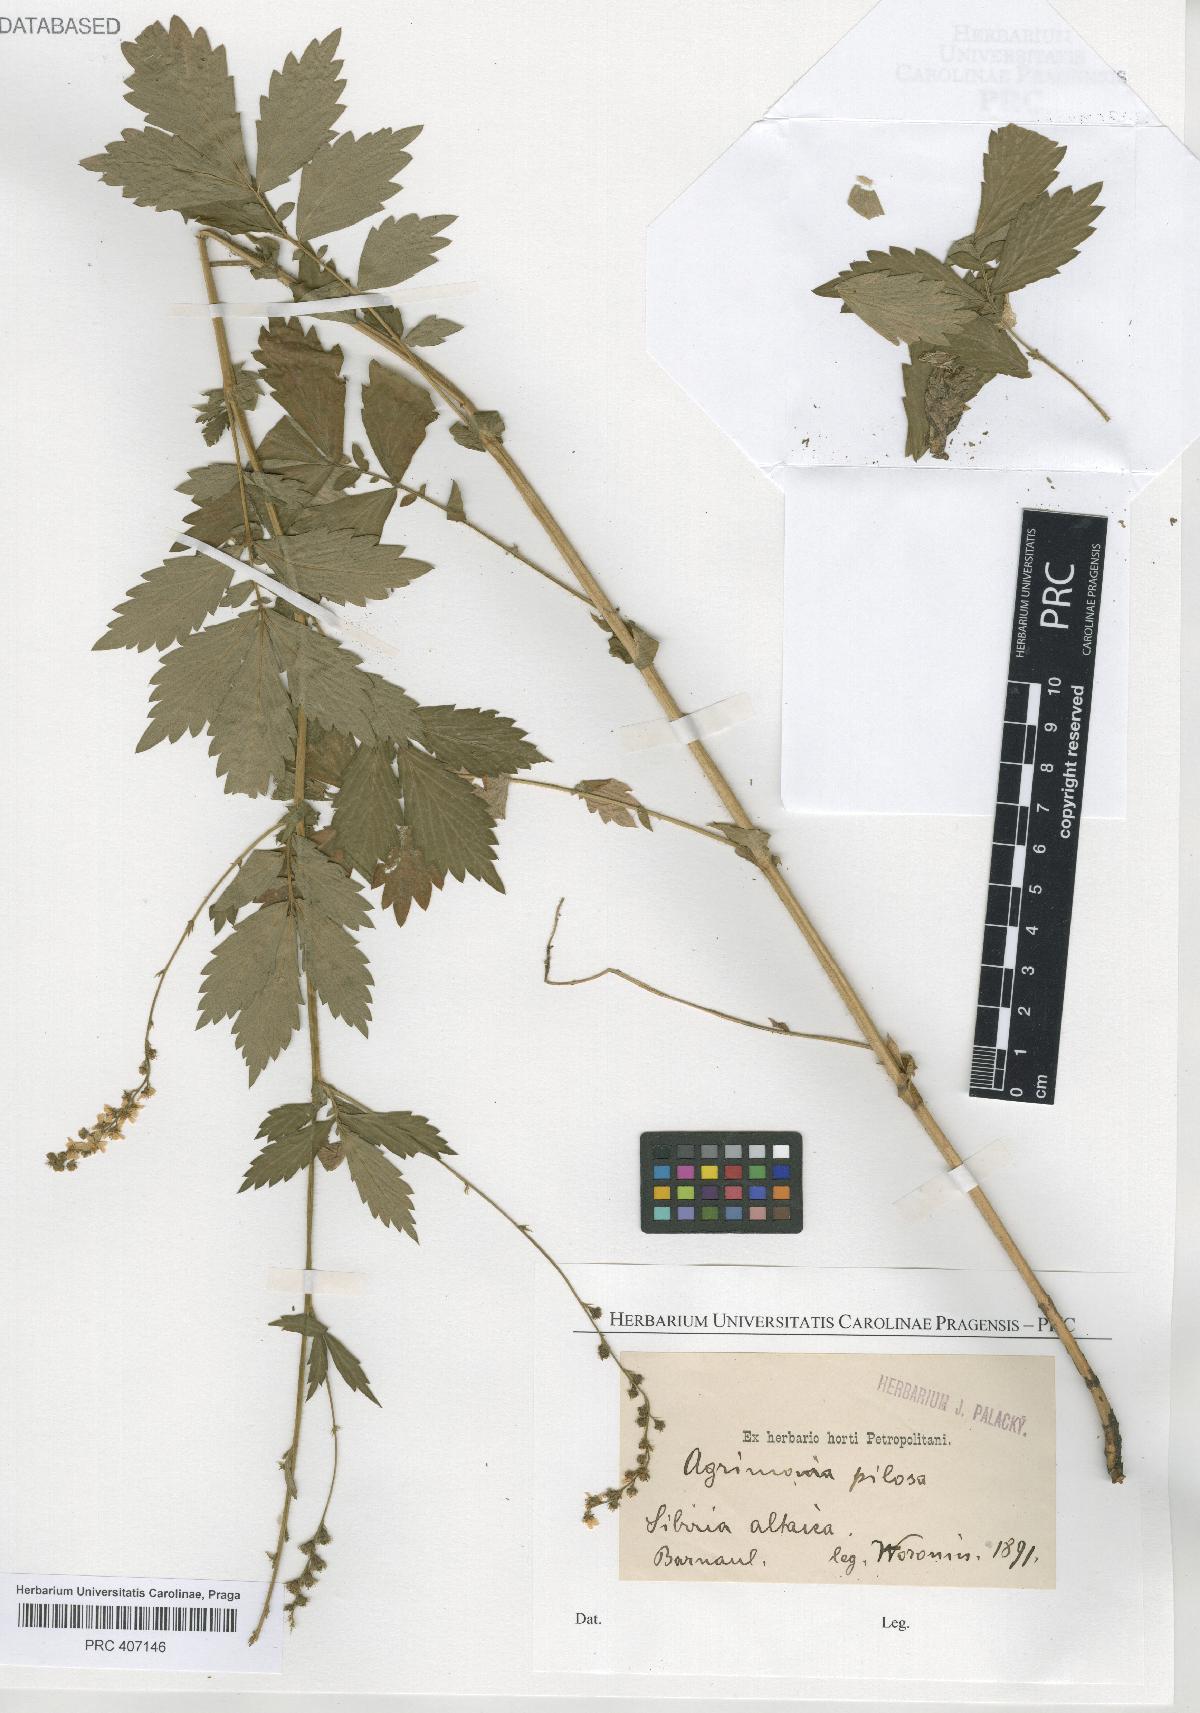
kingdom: Plantae
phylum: Tracheophyta
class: Magnoliopsida
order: Rosales
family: Rosaceae
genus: Agrimonia
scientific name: Agrimonia pilosa
